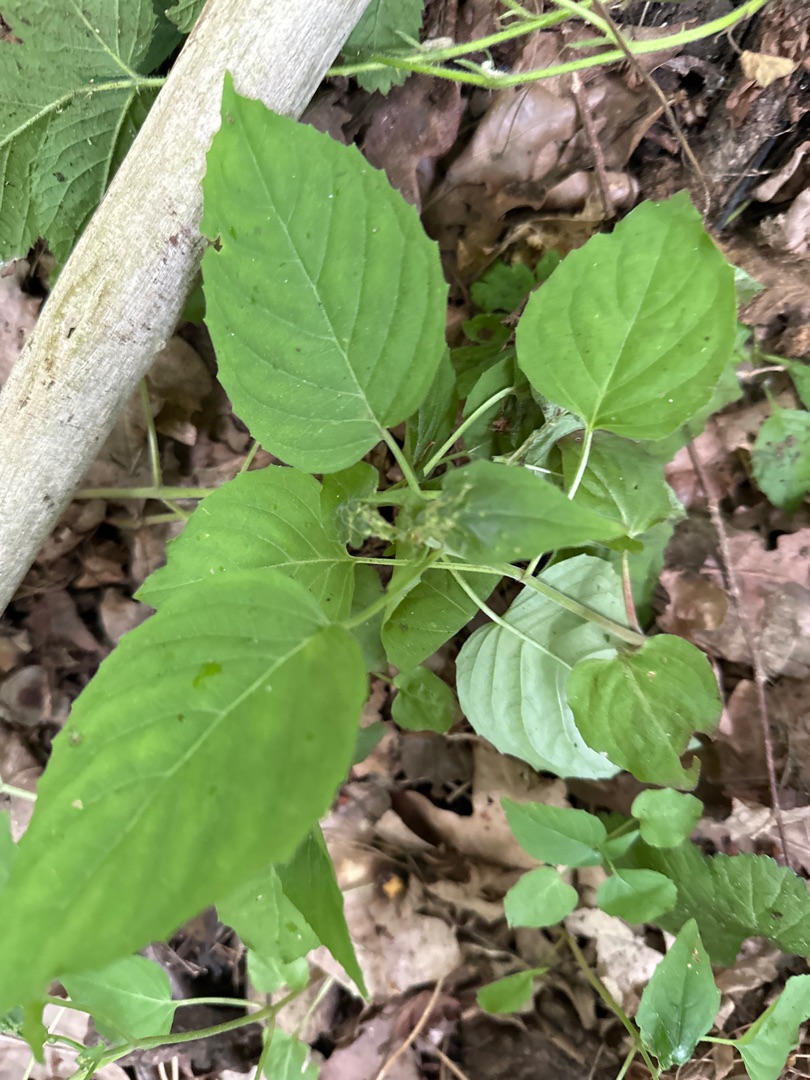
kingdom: Plantae
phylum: Tracheophyta
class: Magnoliopsida
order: Myrtales
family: Onagraceae
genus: Circaea
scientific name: Circaea lutetiana
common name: Dunet steffensurt
